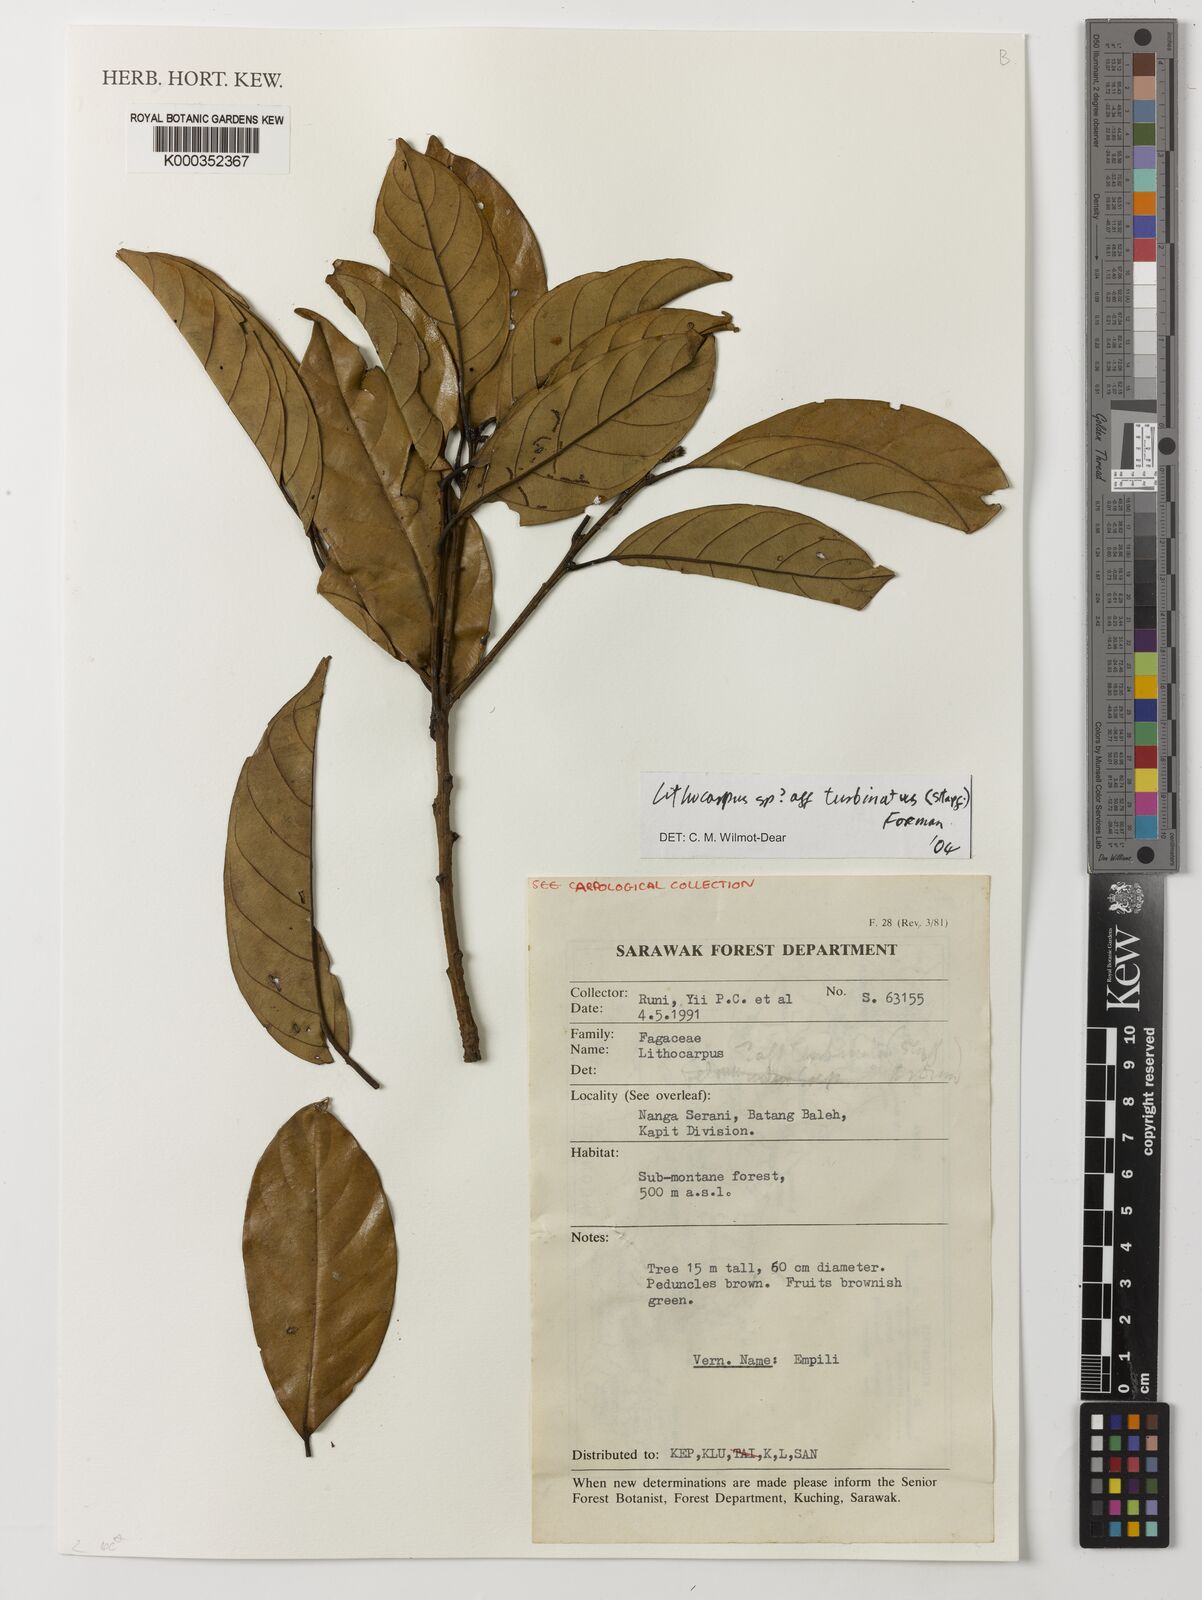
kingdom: Plantae
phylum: Tracheophyta
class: Magnoliopsida
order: Fagales
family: Fagaceae
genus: Lithocarpus
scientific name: Lithocarpus turbinatus
